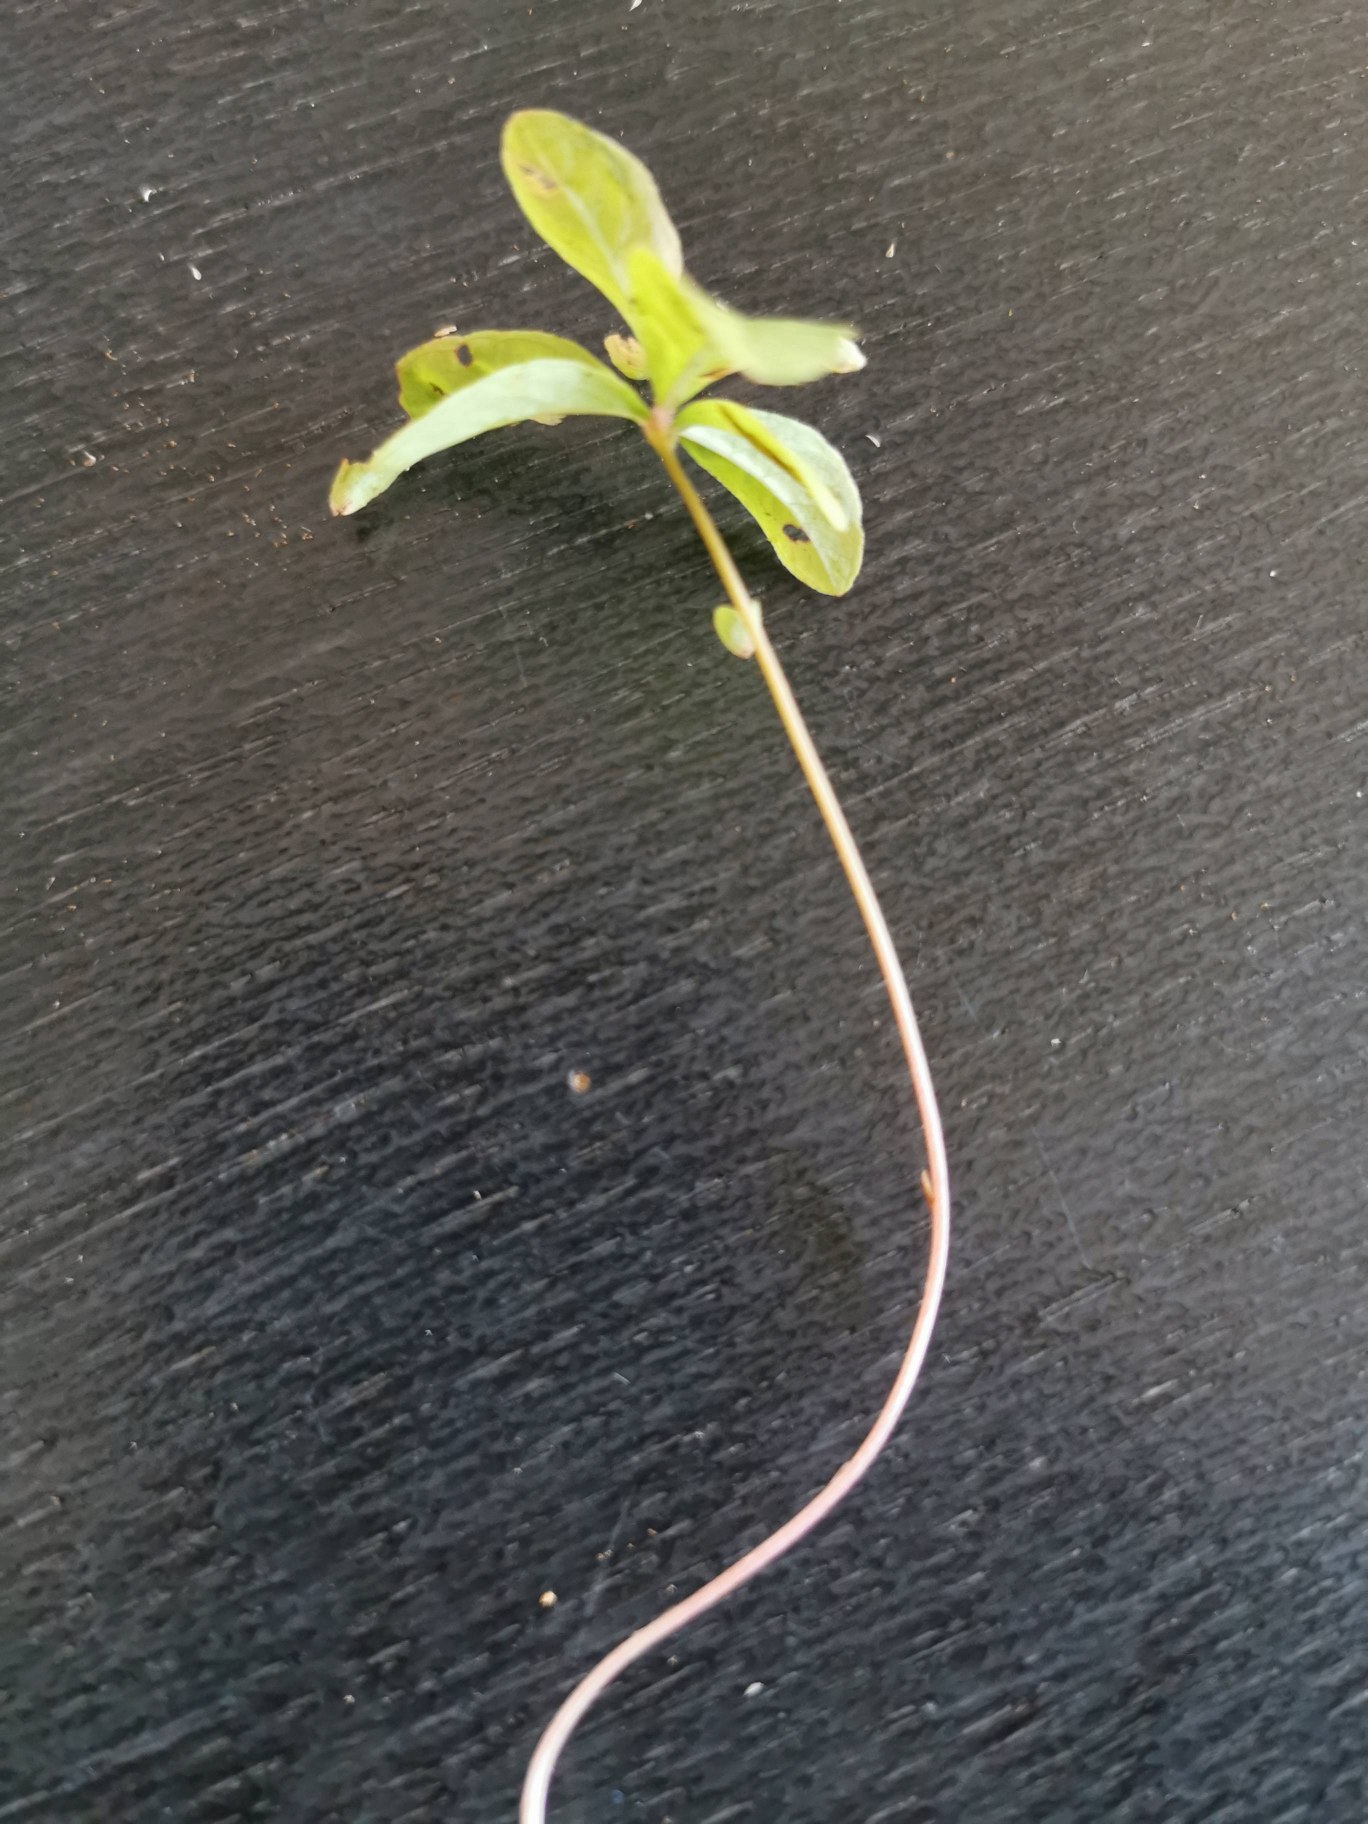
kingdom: Plantae
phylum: Tracheophyta
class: Magnoliopsida
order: Ericales
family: Primulaceae
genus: Lysimachia
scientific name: Lysimachia europaea
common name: Skovstjerne
